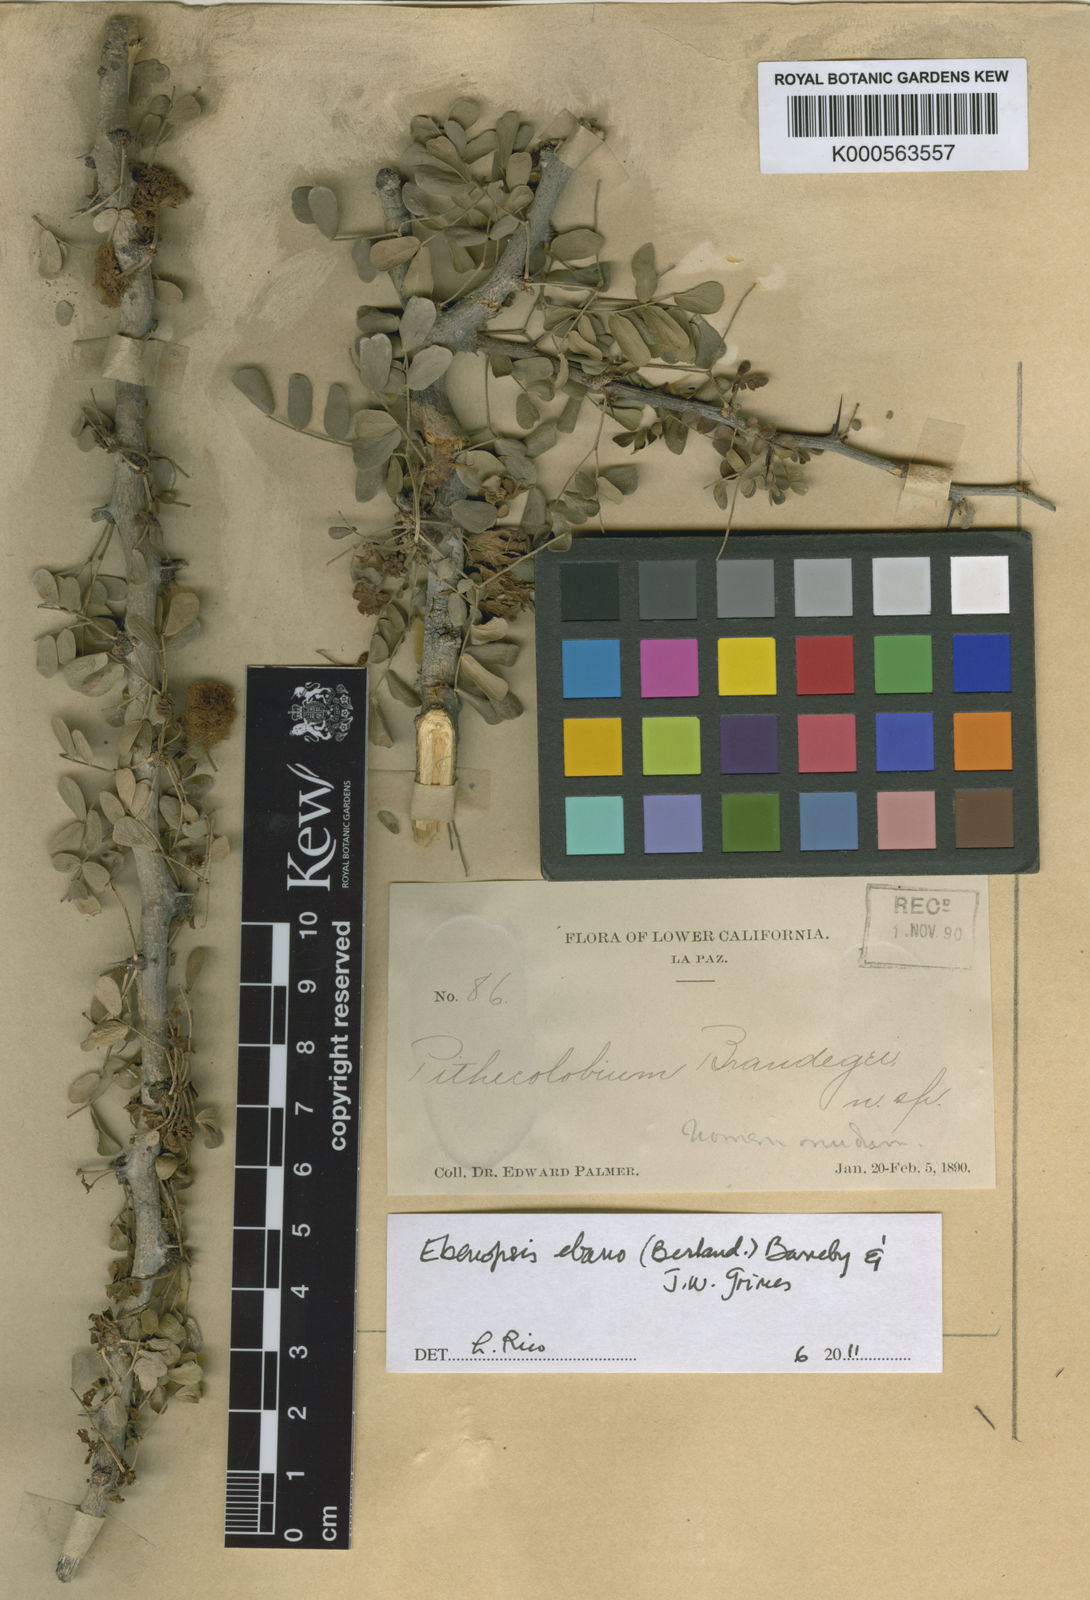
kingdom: Plantae
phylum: Tracheophyta
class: Magnoliopsida
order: Fabales
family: Fabaceae
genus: Ebenopsis
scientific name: Ebenopsis ebano
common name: Ebony blackbead
